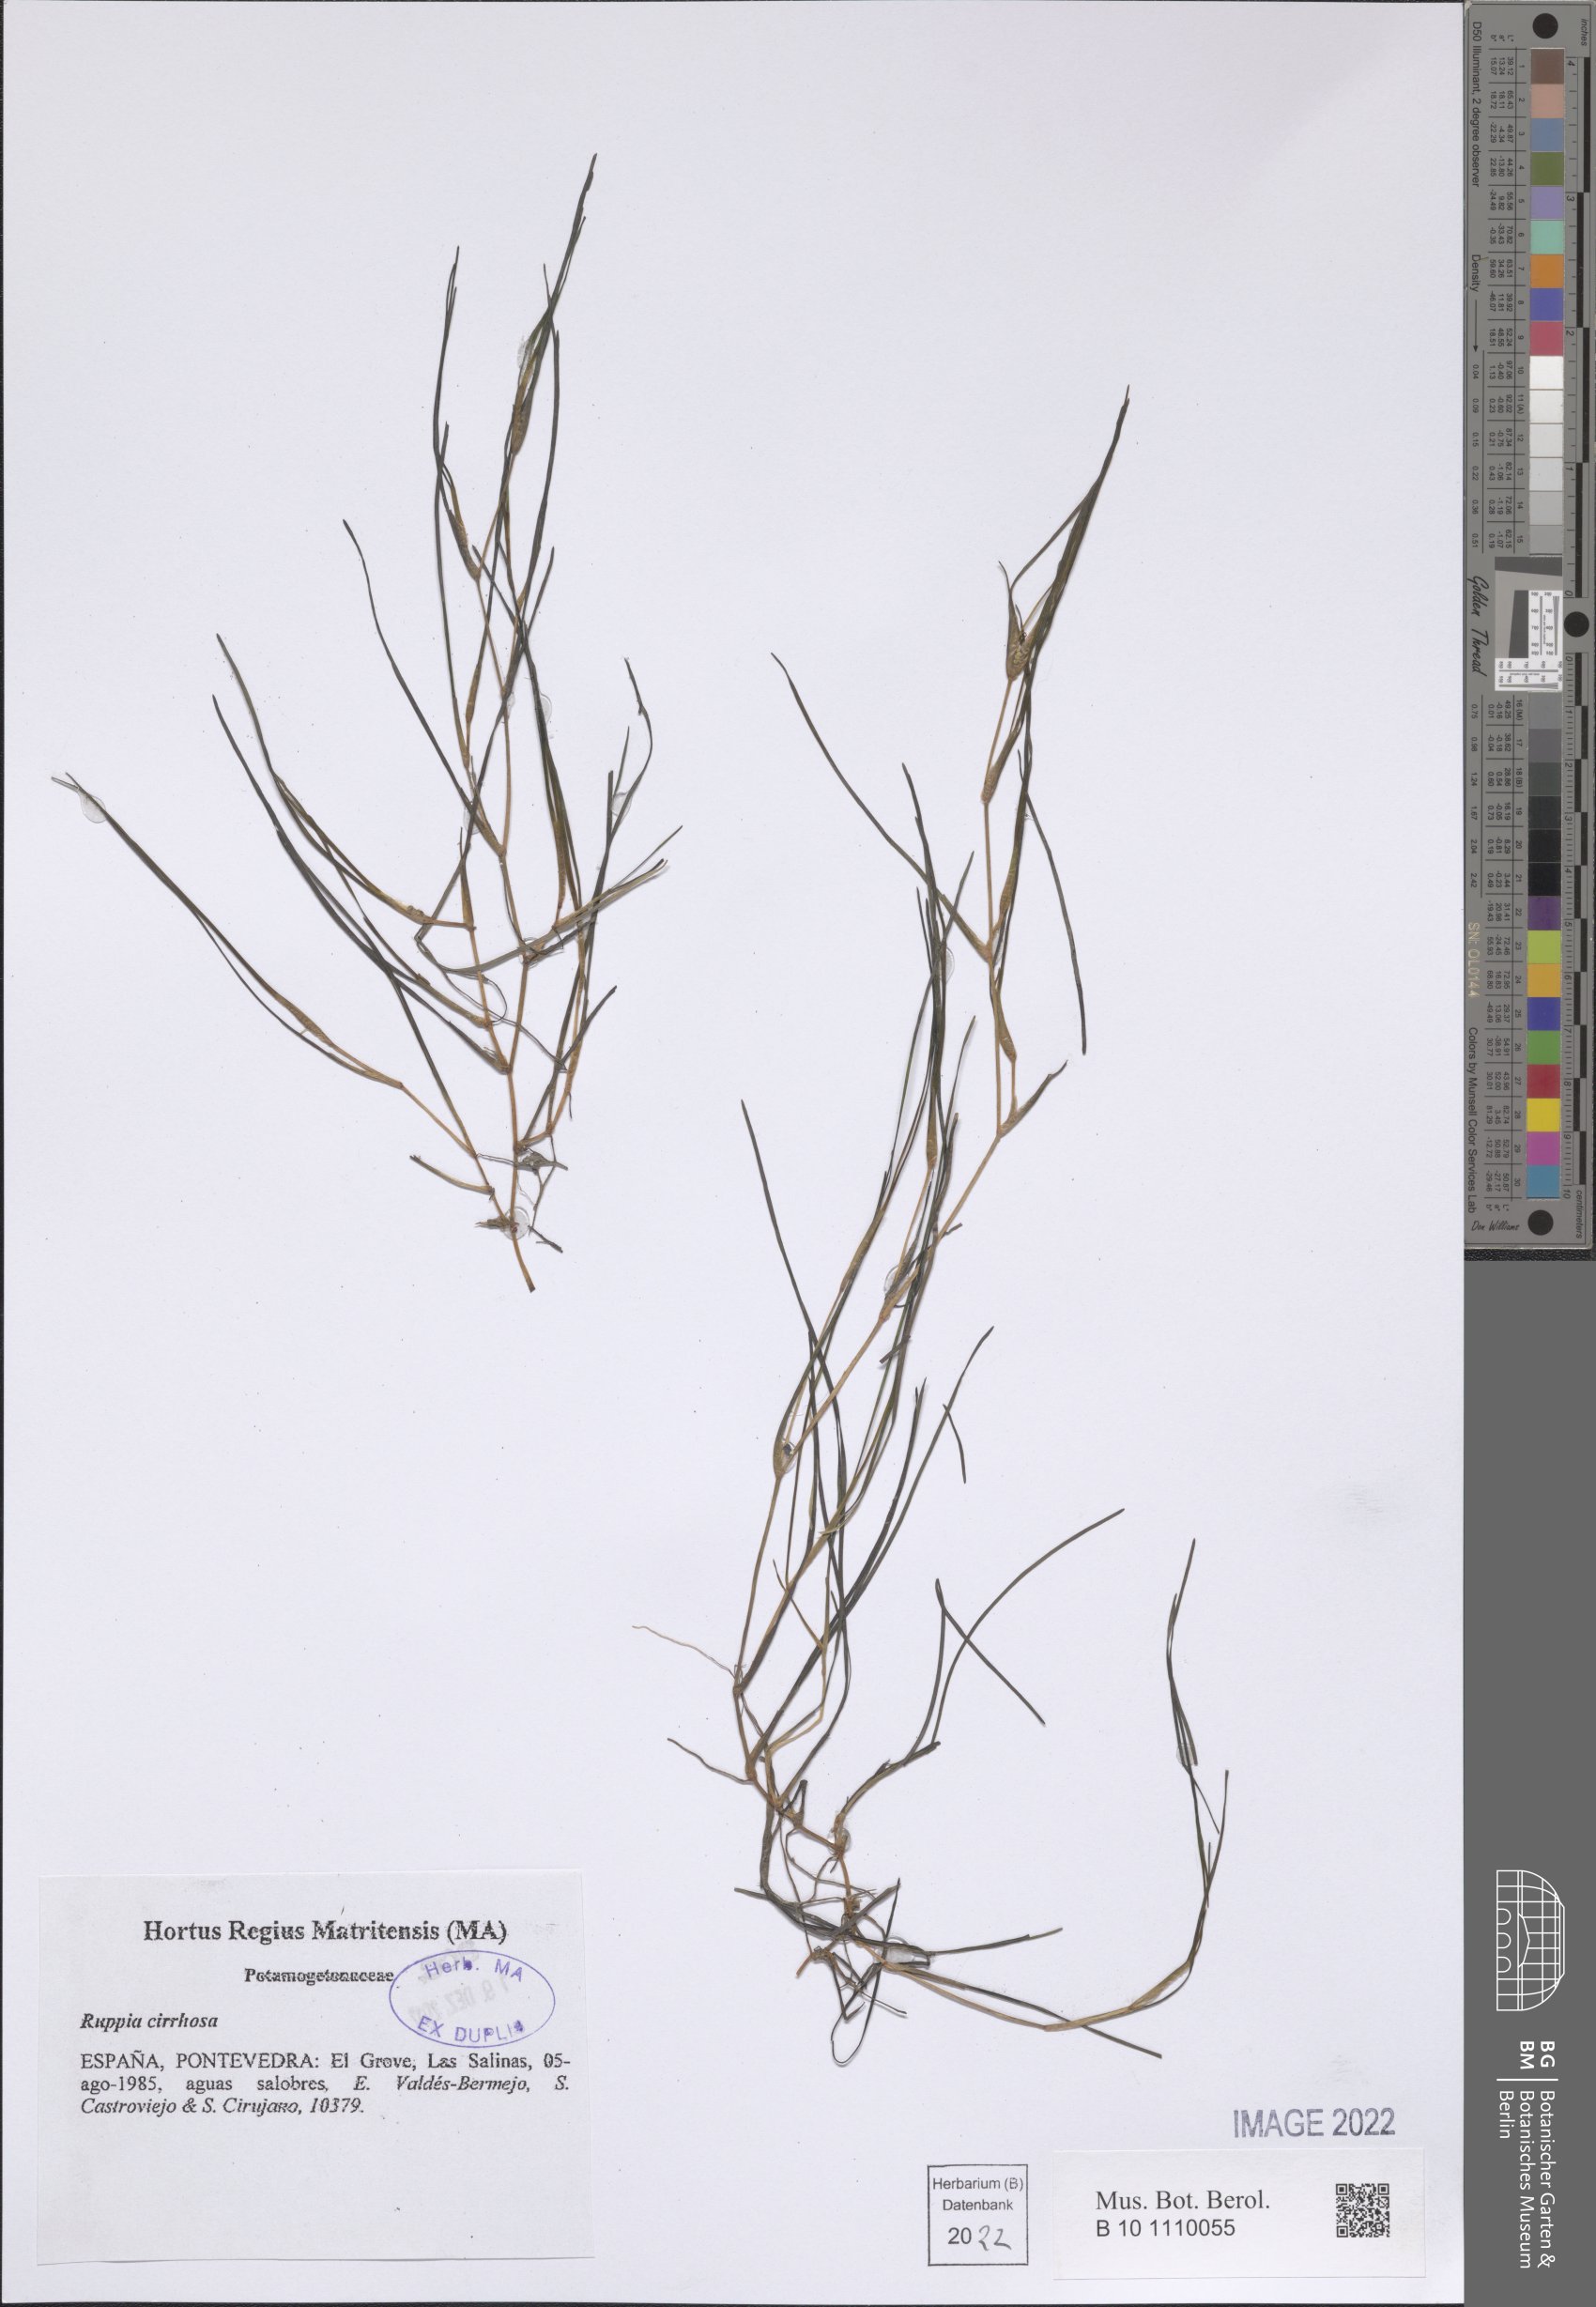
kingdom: Plantae
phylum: Tracheophyta
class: Liliopsida
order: Alismatales
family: Ruppiaceae
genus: Ruppia
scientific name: Ruppia cirrhosa
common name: Spiral tasselweed
